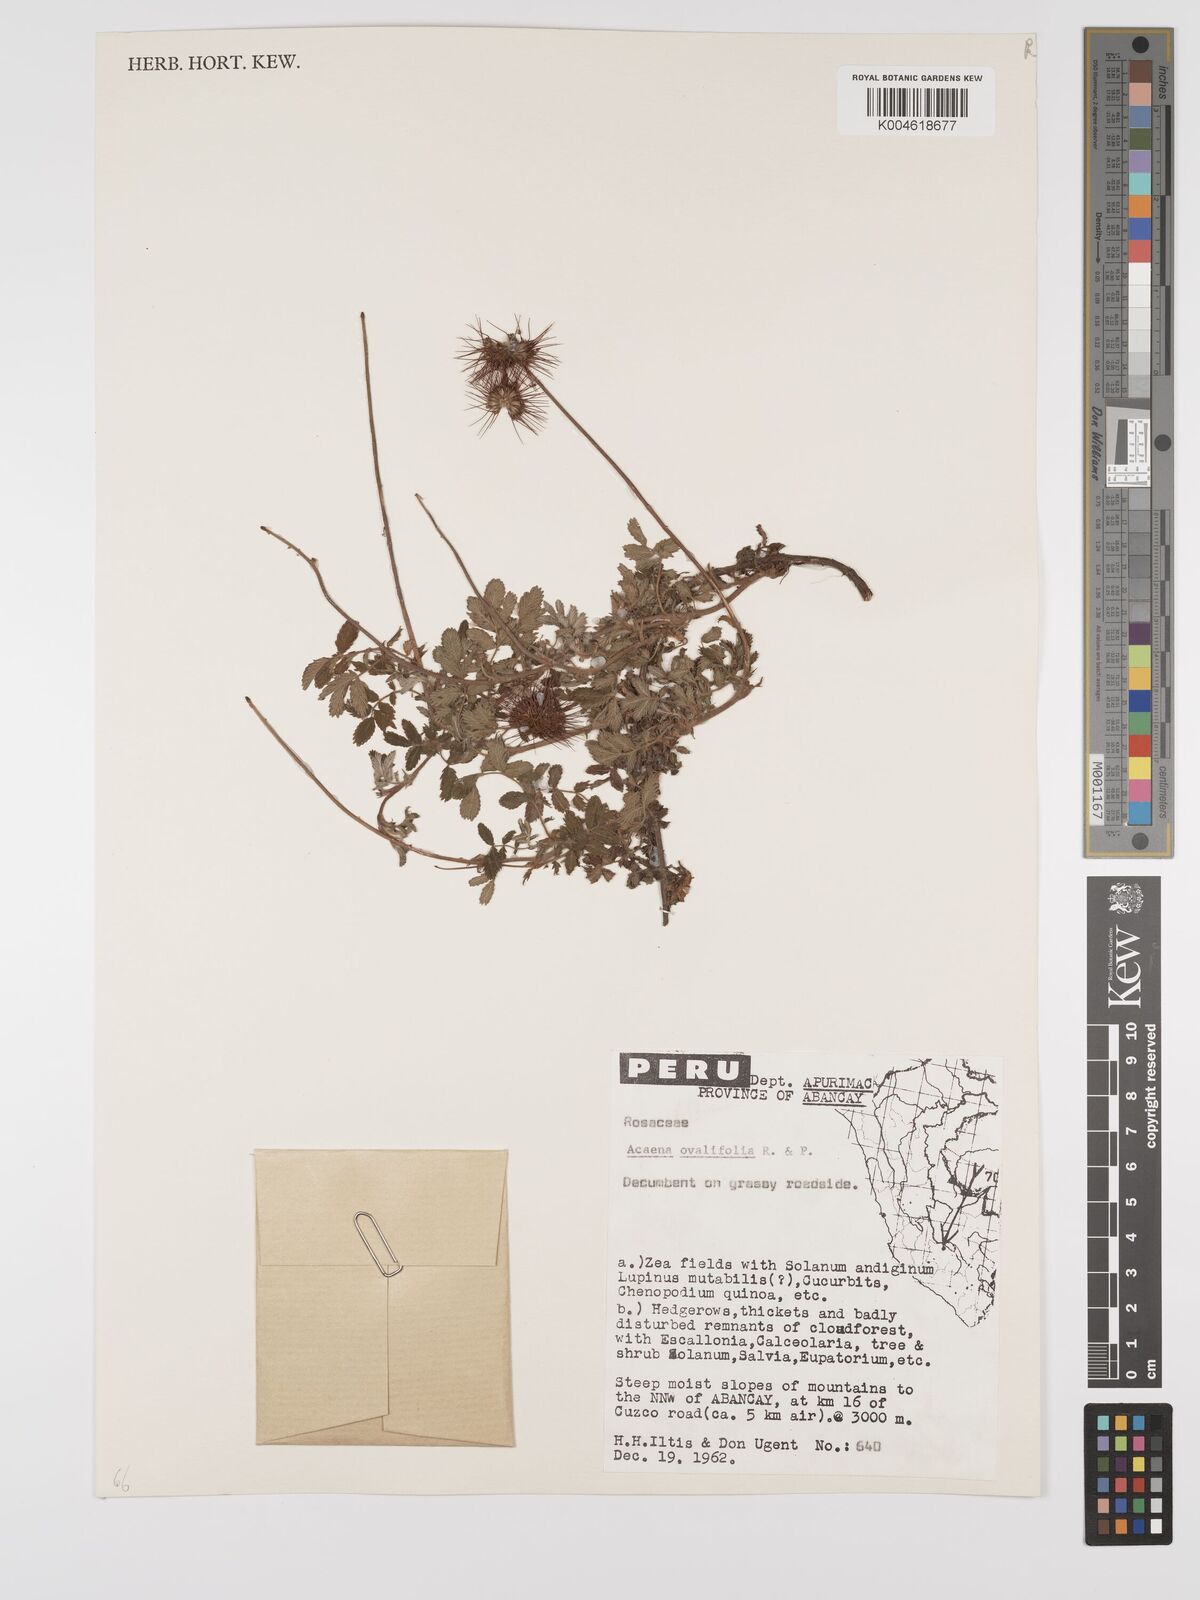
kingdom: Plantae
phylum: Tracheophyta
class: Magnoliopsida
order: Rosales
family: Rosaceae
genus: Acaena
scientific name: Acaena ovalifolia
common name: Two-spined acaena
